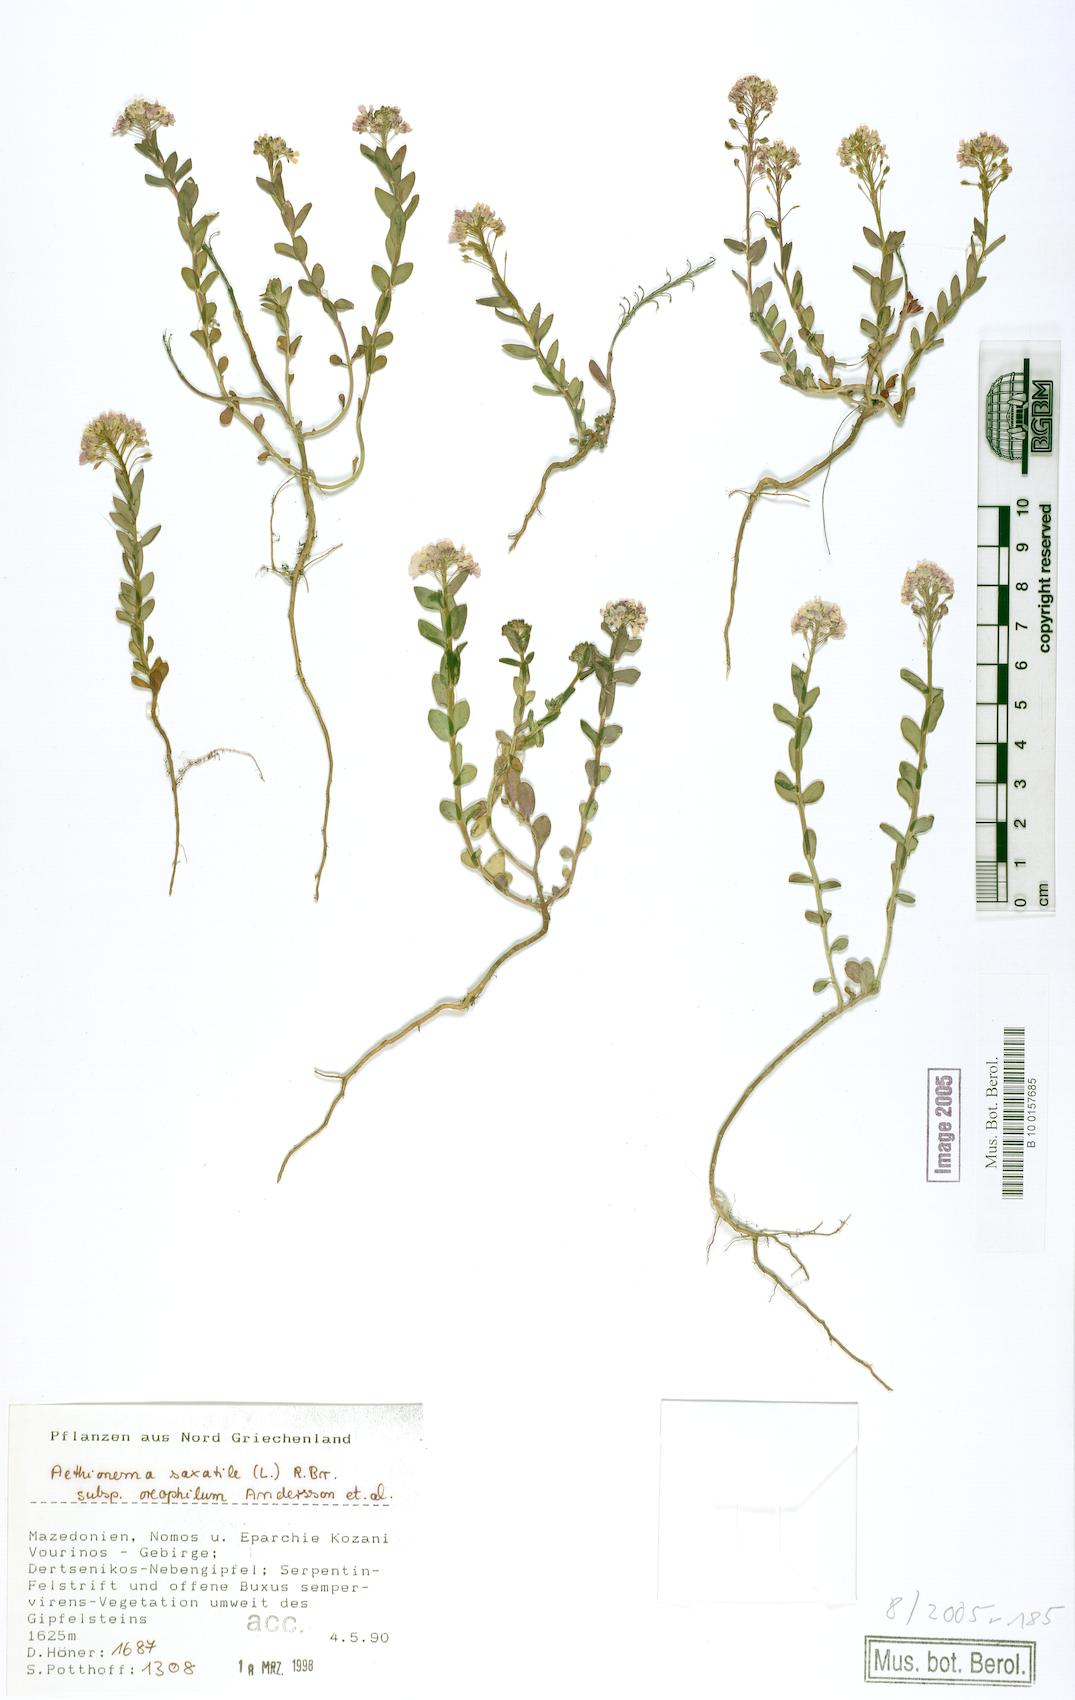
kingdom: Plantae
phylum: Tracheophyta
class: Magnoliopsida
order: Brassicales
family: Brassicaceae
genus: Aethionema
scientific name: Aethionema saxatile
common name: Burnt candytuft
